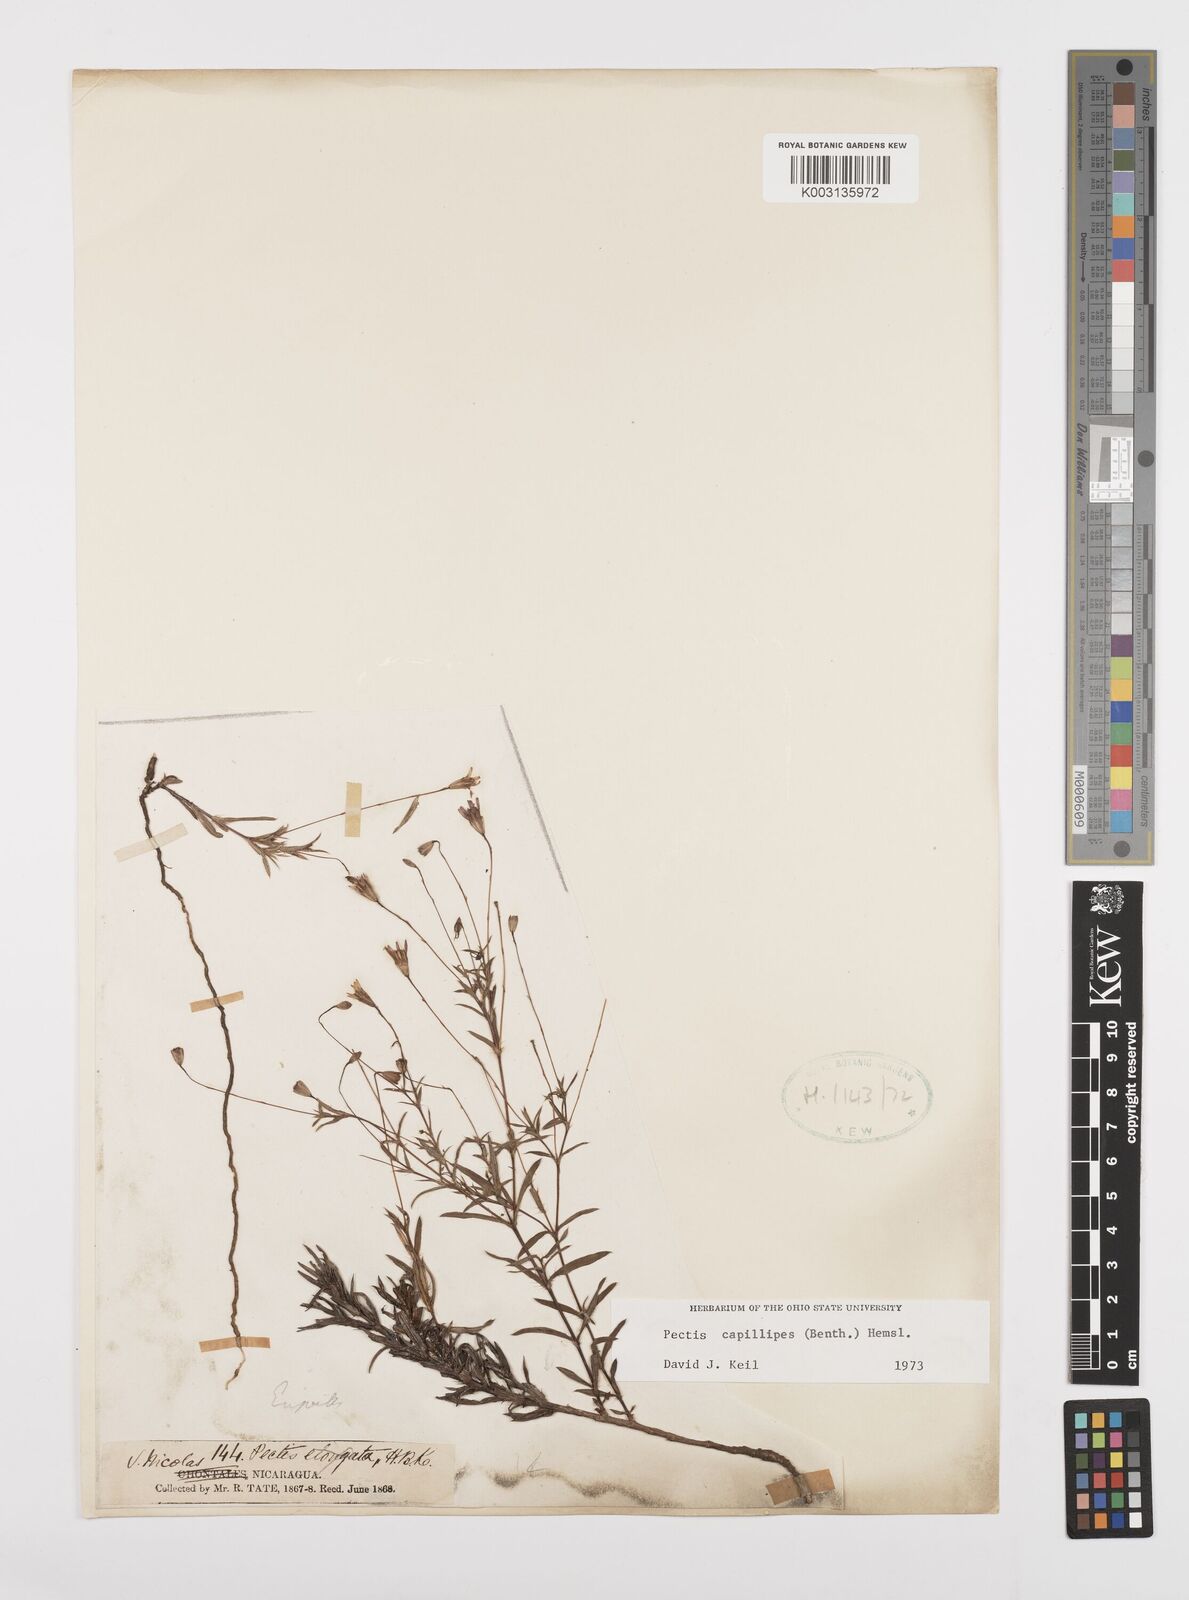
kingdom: Plantae
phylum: Tracheophyta
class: Magnoliopsida
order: Asterales
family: Asteraceae
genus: Pectis
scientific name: Pectis capillipes
